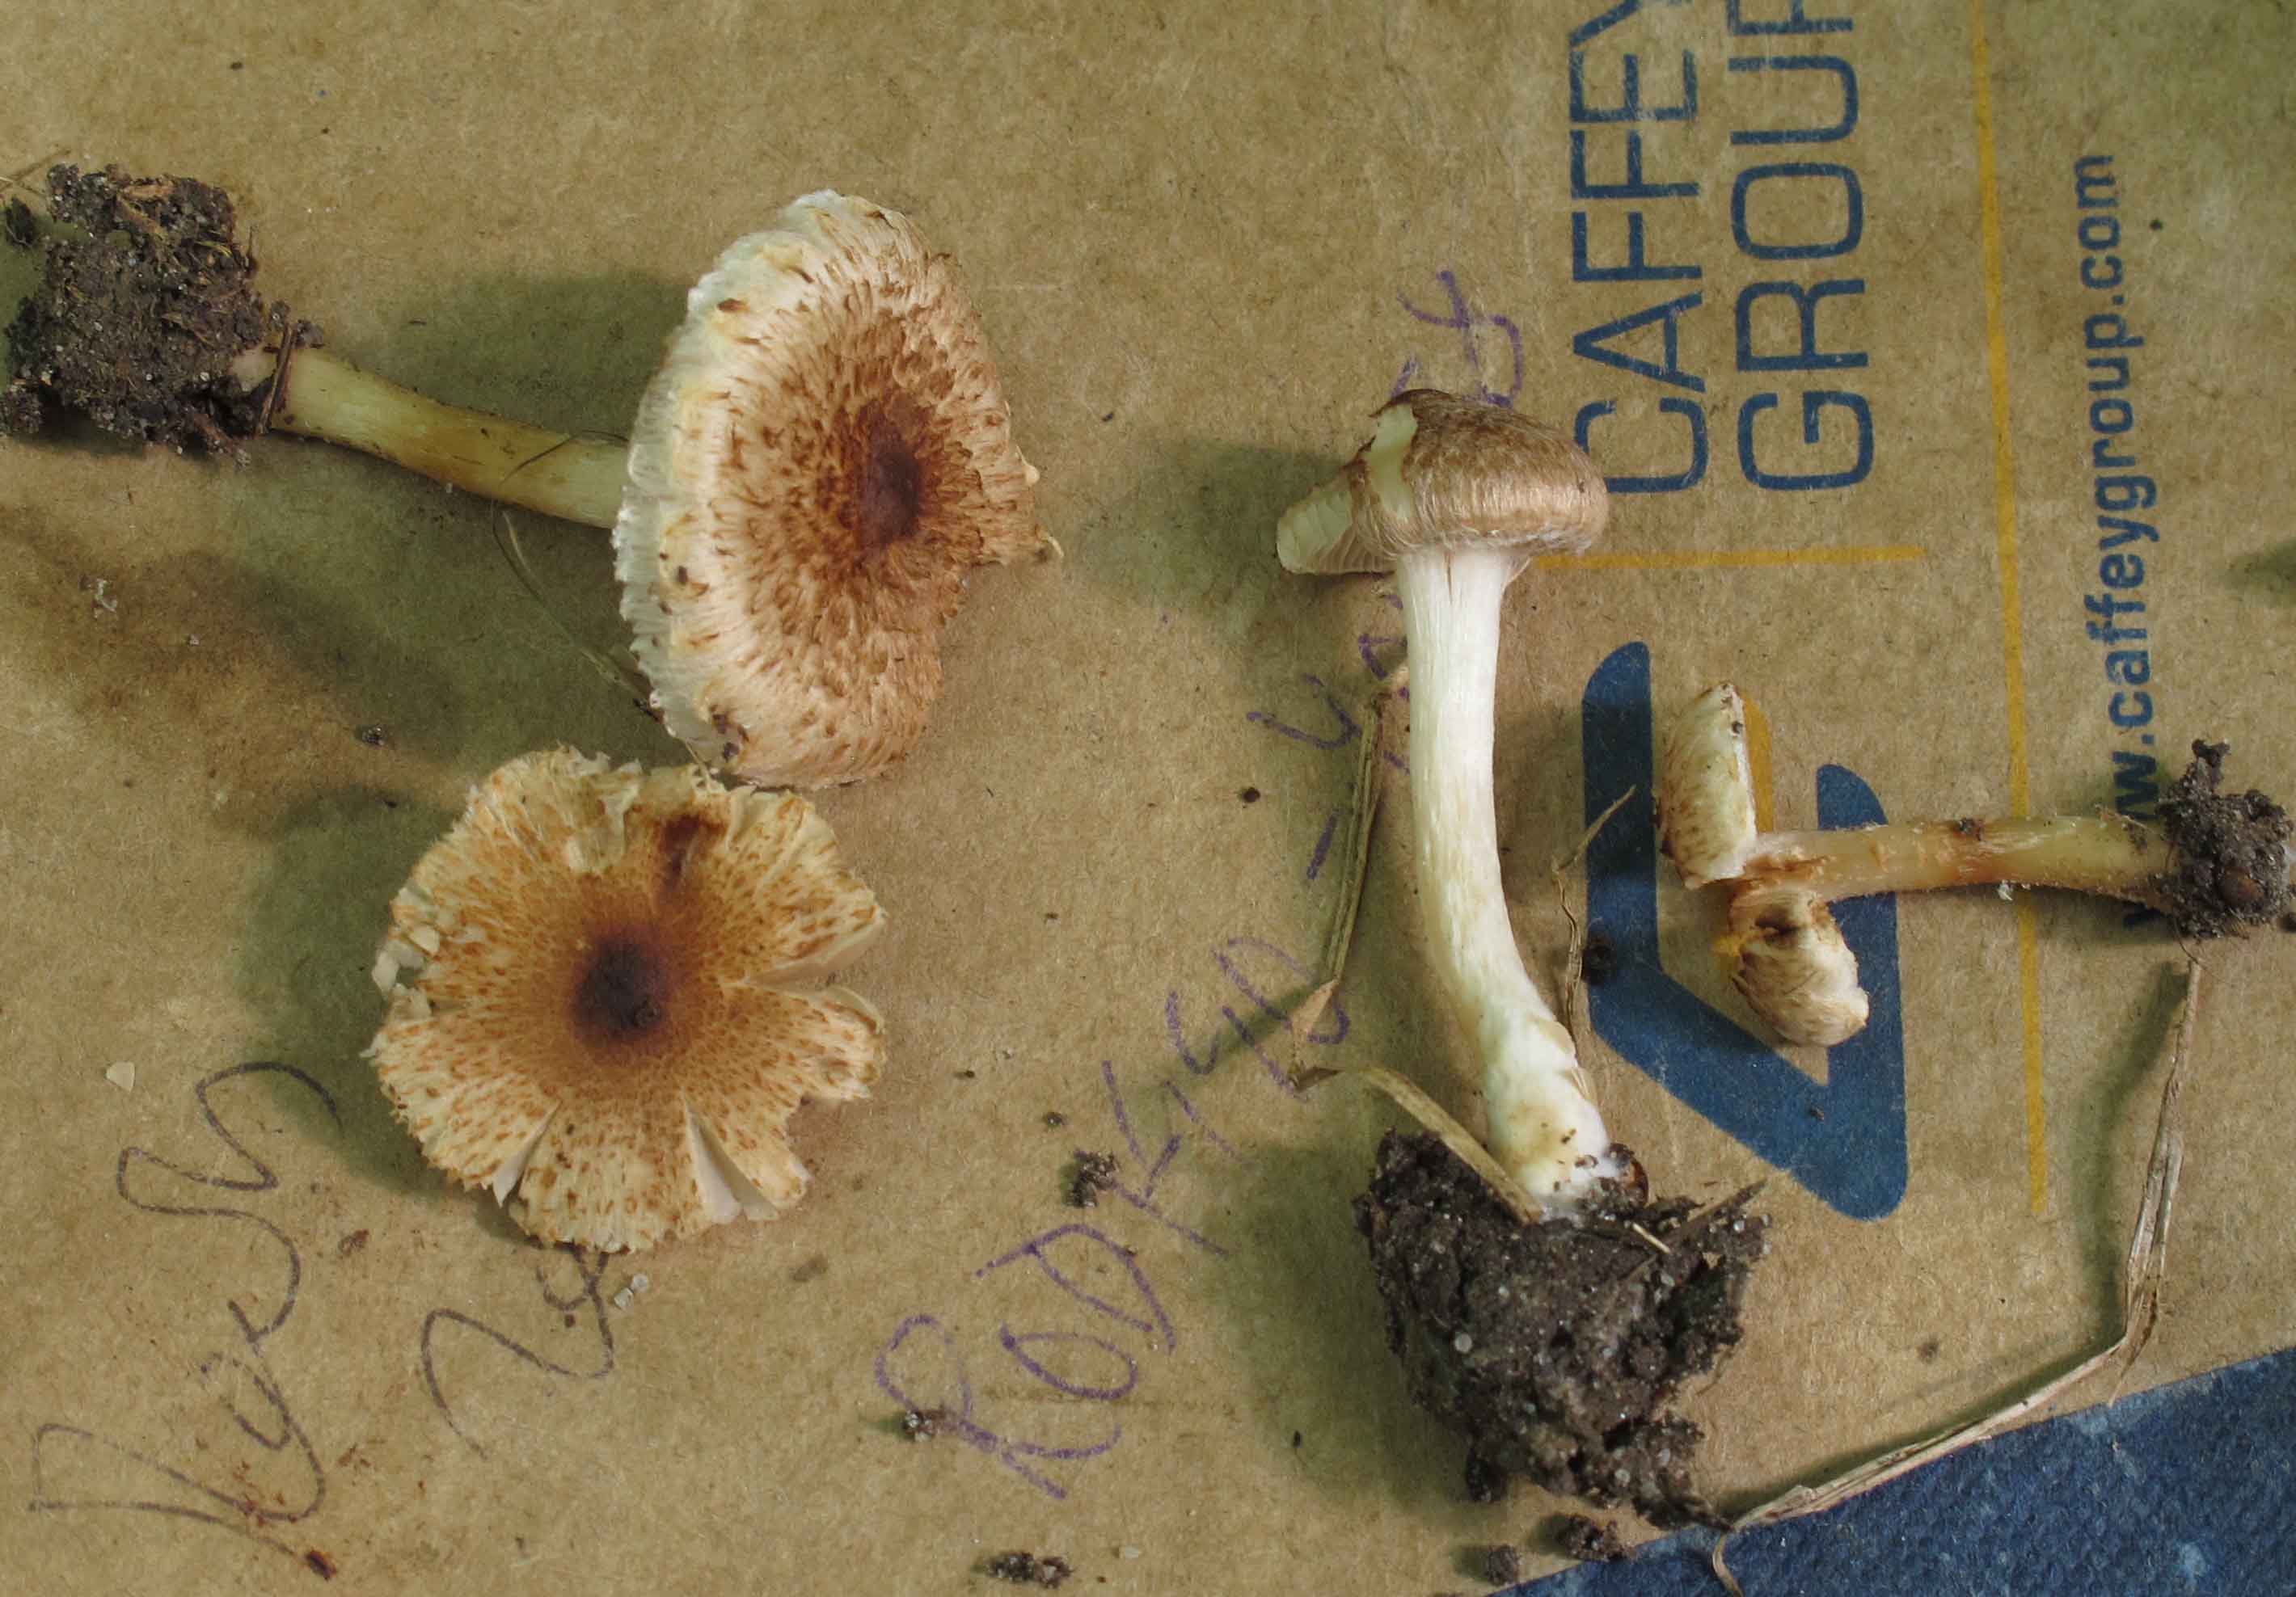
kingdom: Fungi
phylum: Basidiomycota
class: Agaricomycetes
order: Agaricales
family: Inocybaceae
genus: Inocybe
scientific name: Inocybe
